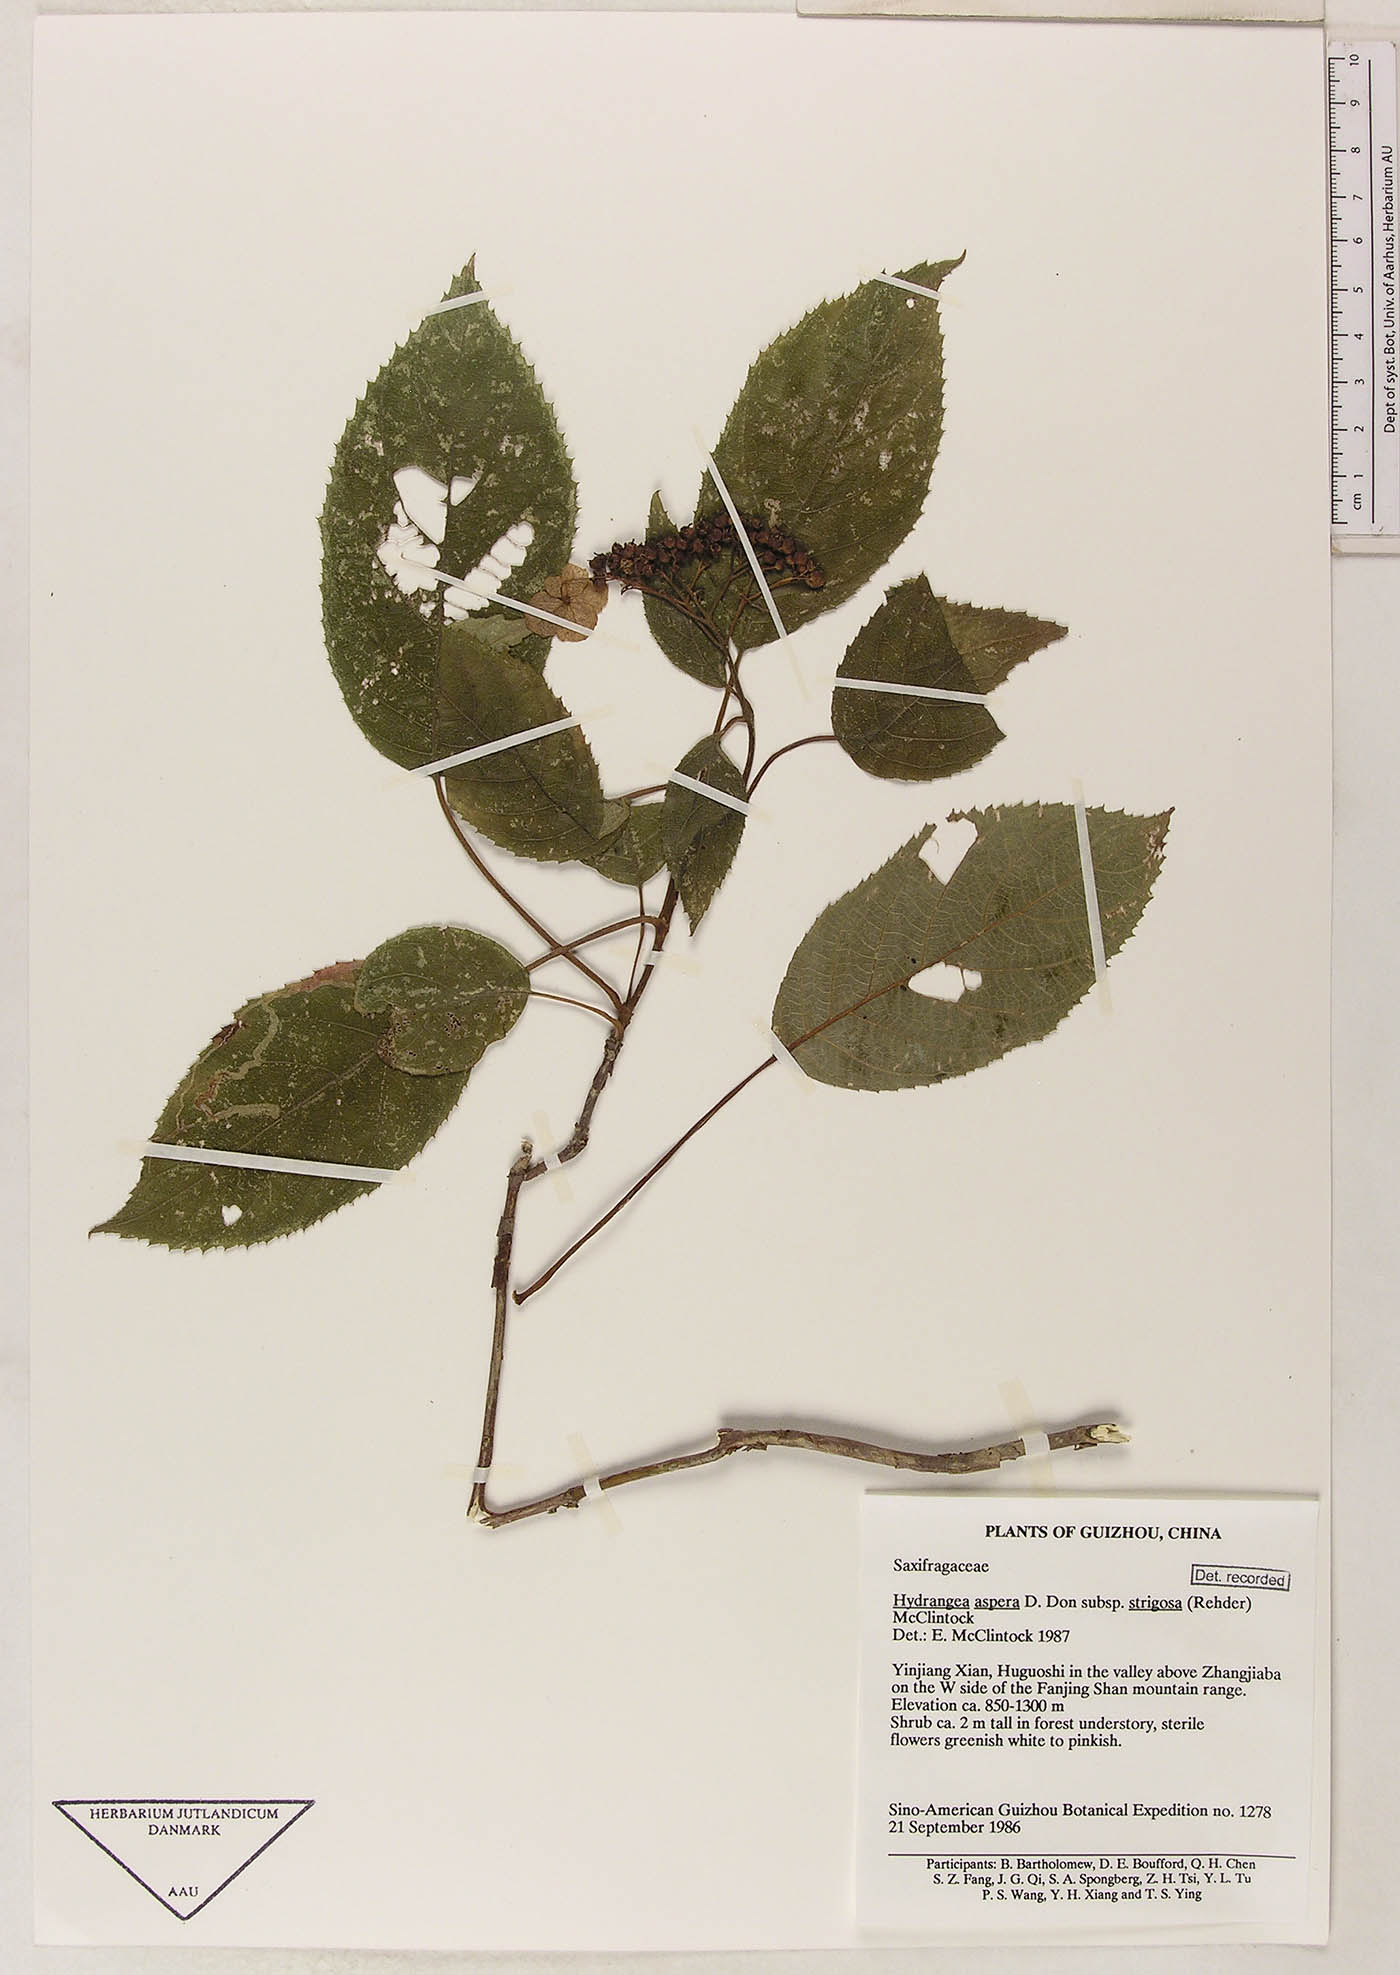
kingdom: Plantae
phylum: Tracheophyta
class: Magnoliopsida
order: Cornales
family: Hydrangeaceae
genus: Hydrangea
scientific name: Hydrangea strigosa
